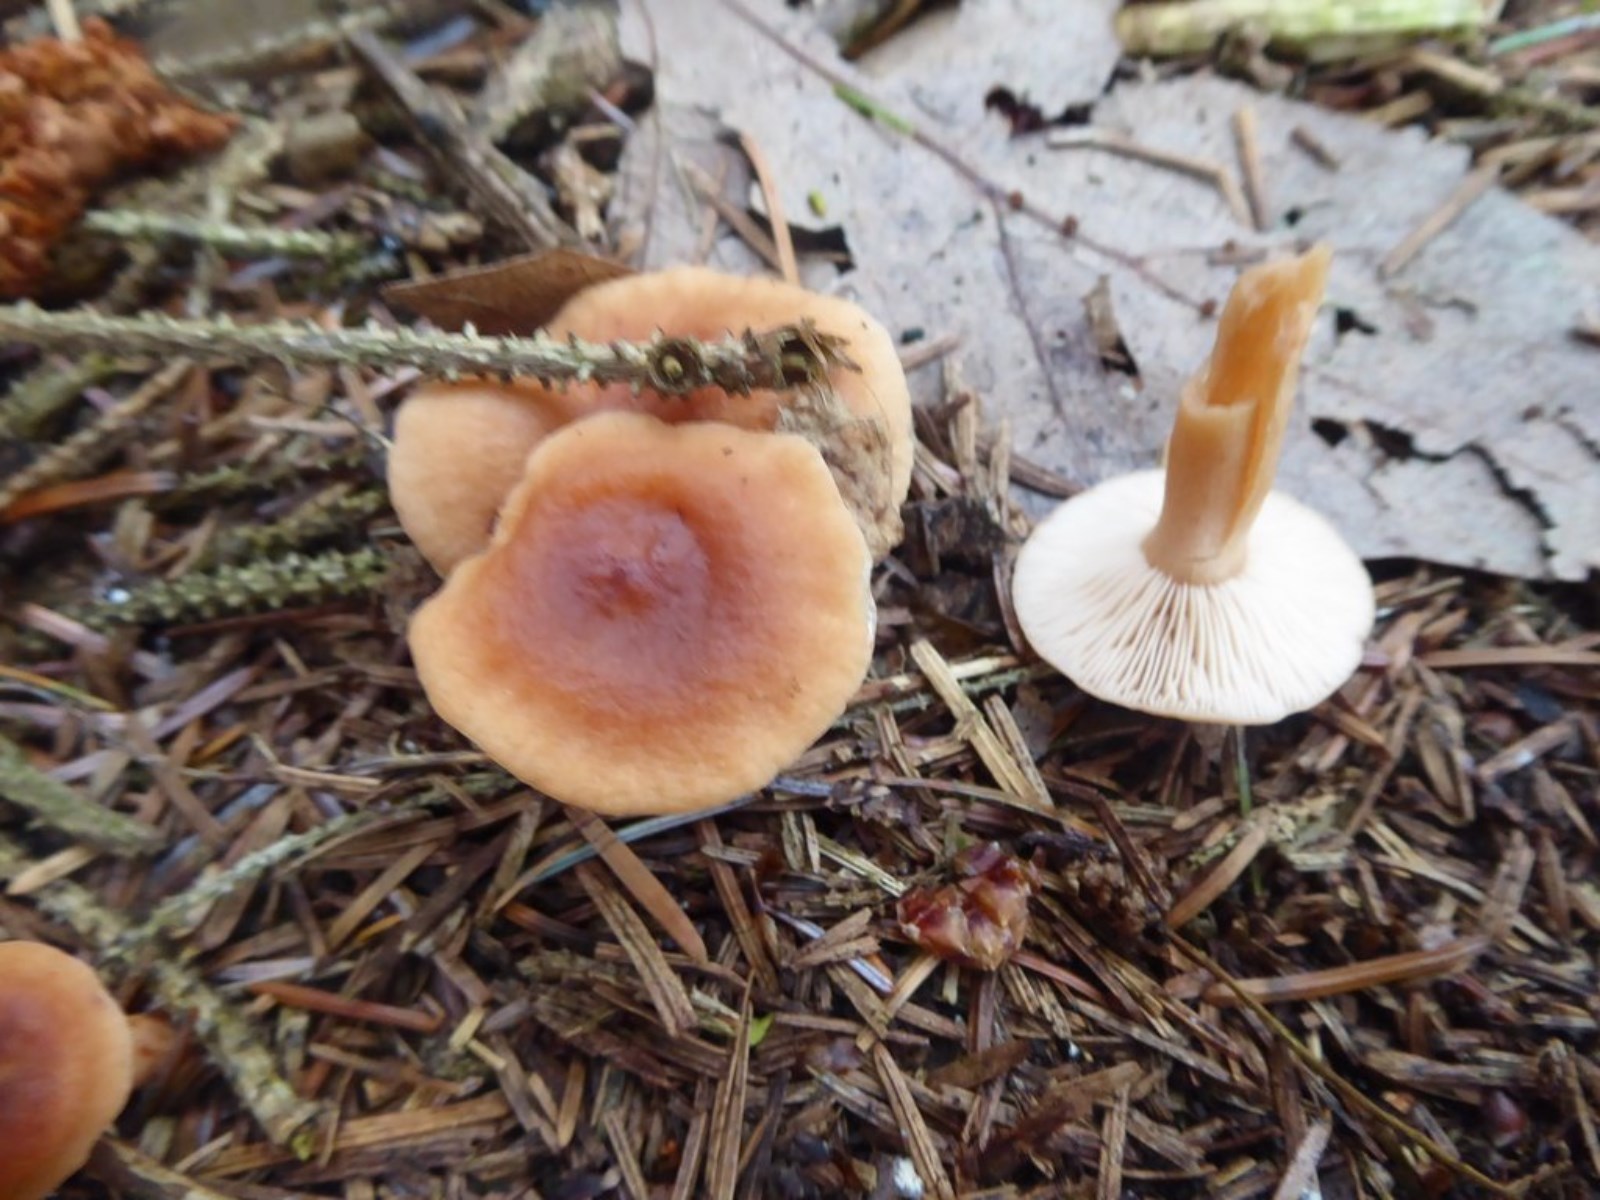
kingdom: Fungi
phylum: Basidiomycota
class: Agaricomycetes
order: Russulales
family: Russulaceae
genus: Lactarius
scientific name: Lactarius tabidus
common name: rynket mælkehat
